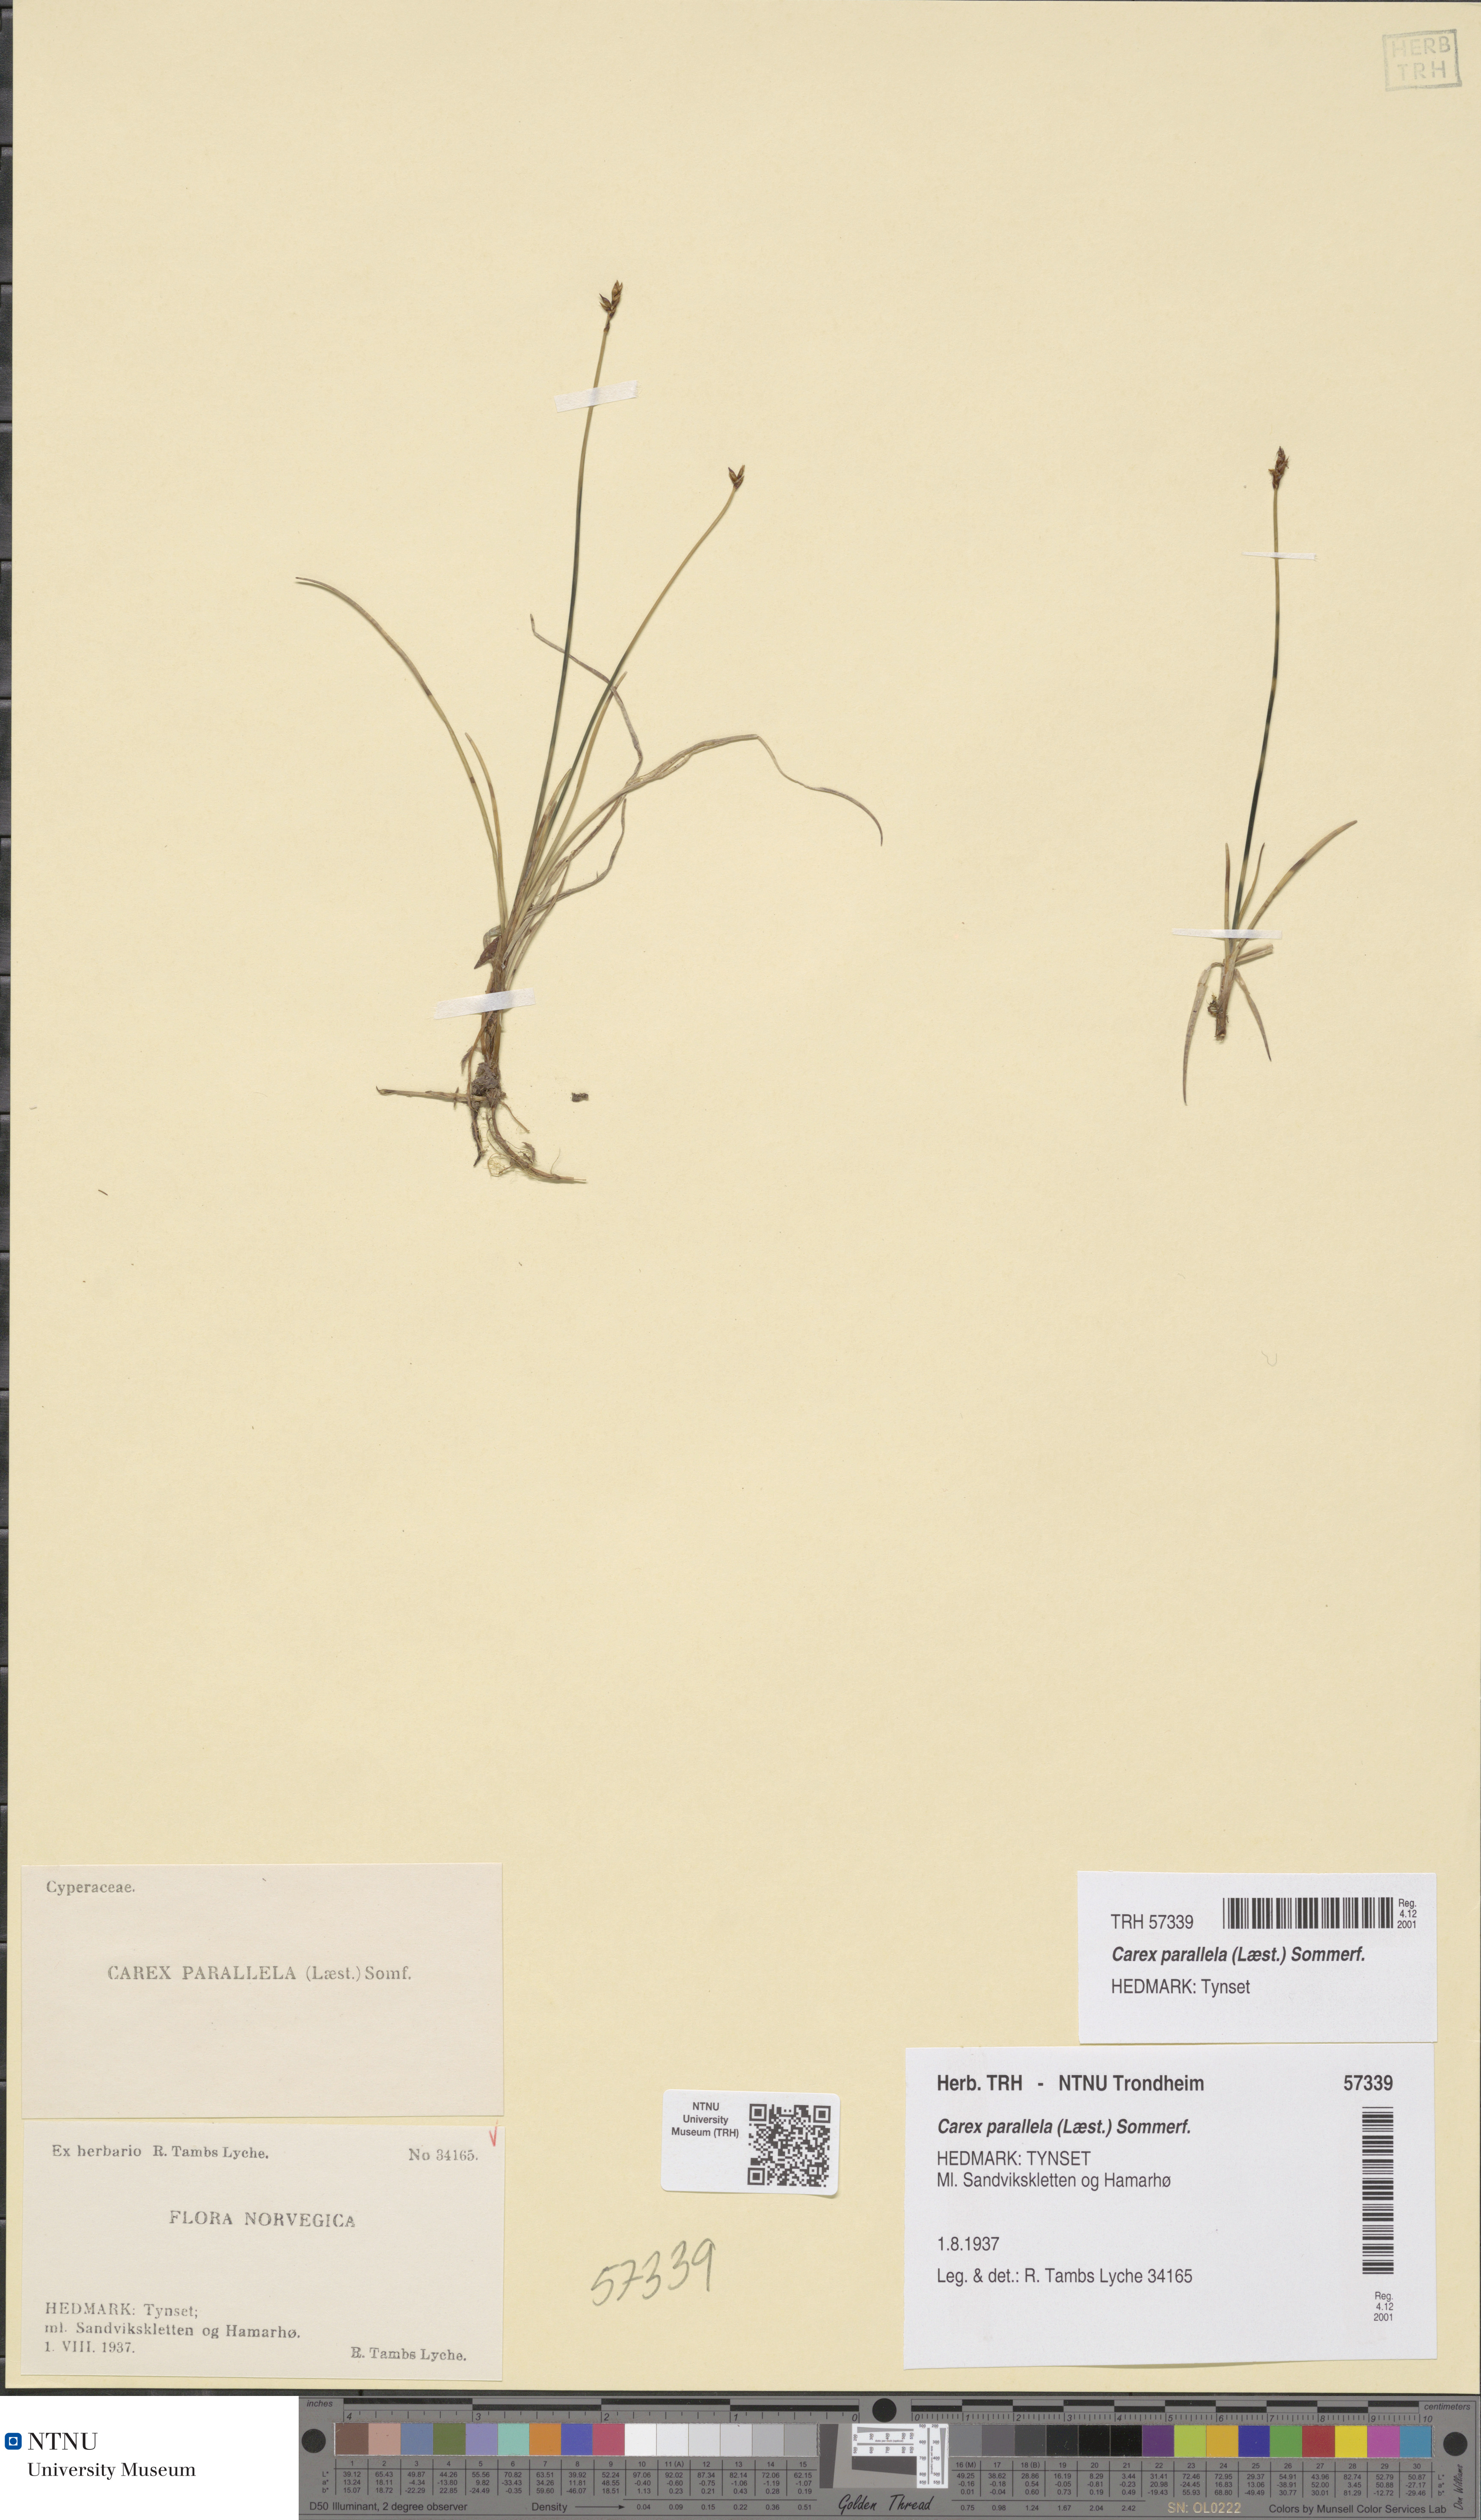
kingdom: Plantae
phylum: Tracheophyta
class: Liliopsida
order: Poales
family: Cyperaceae
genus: Carex
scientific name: Carex parallela
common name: Parallel sedge
